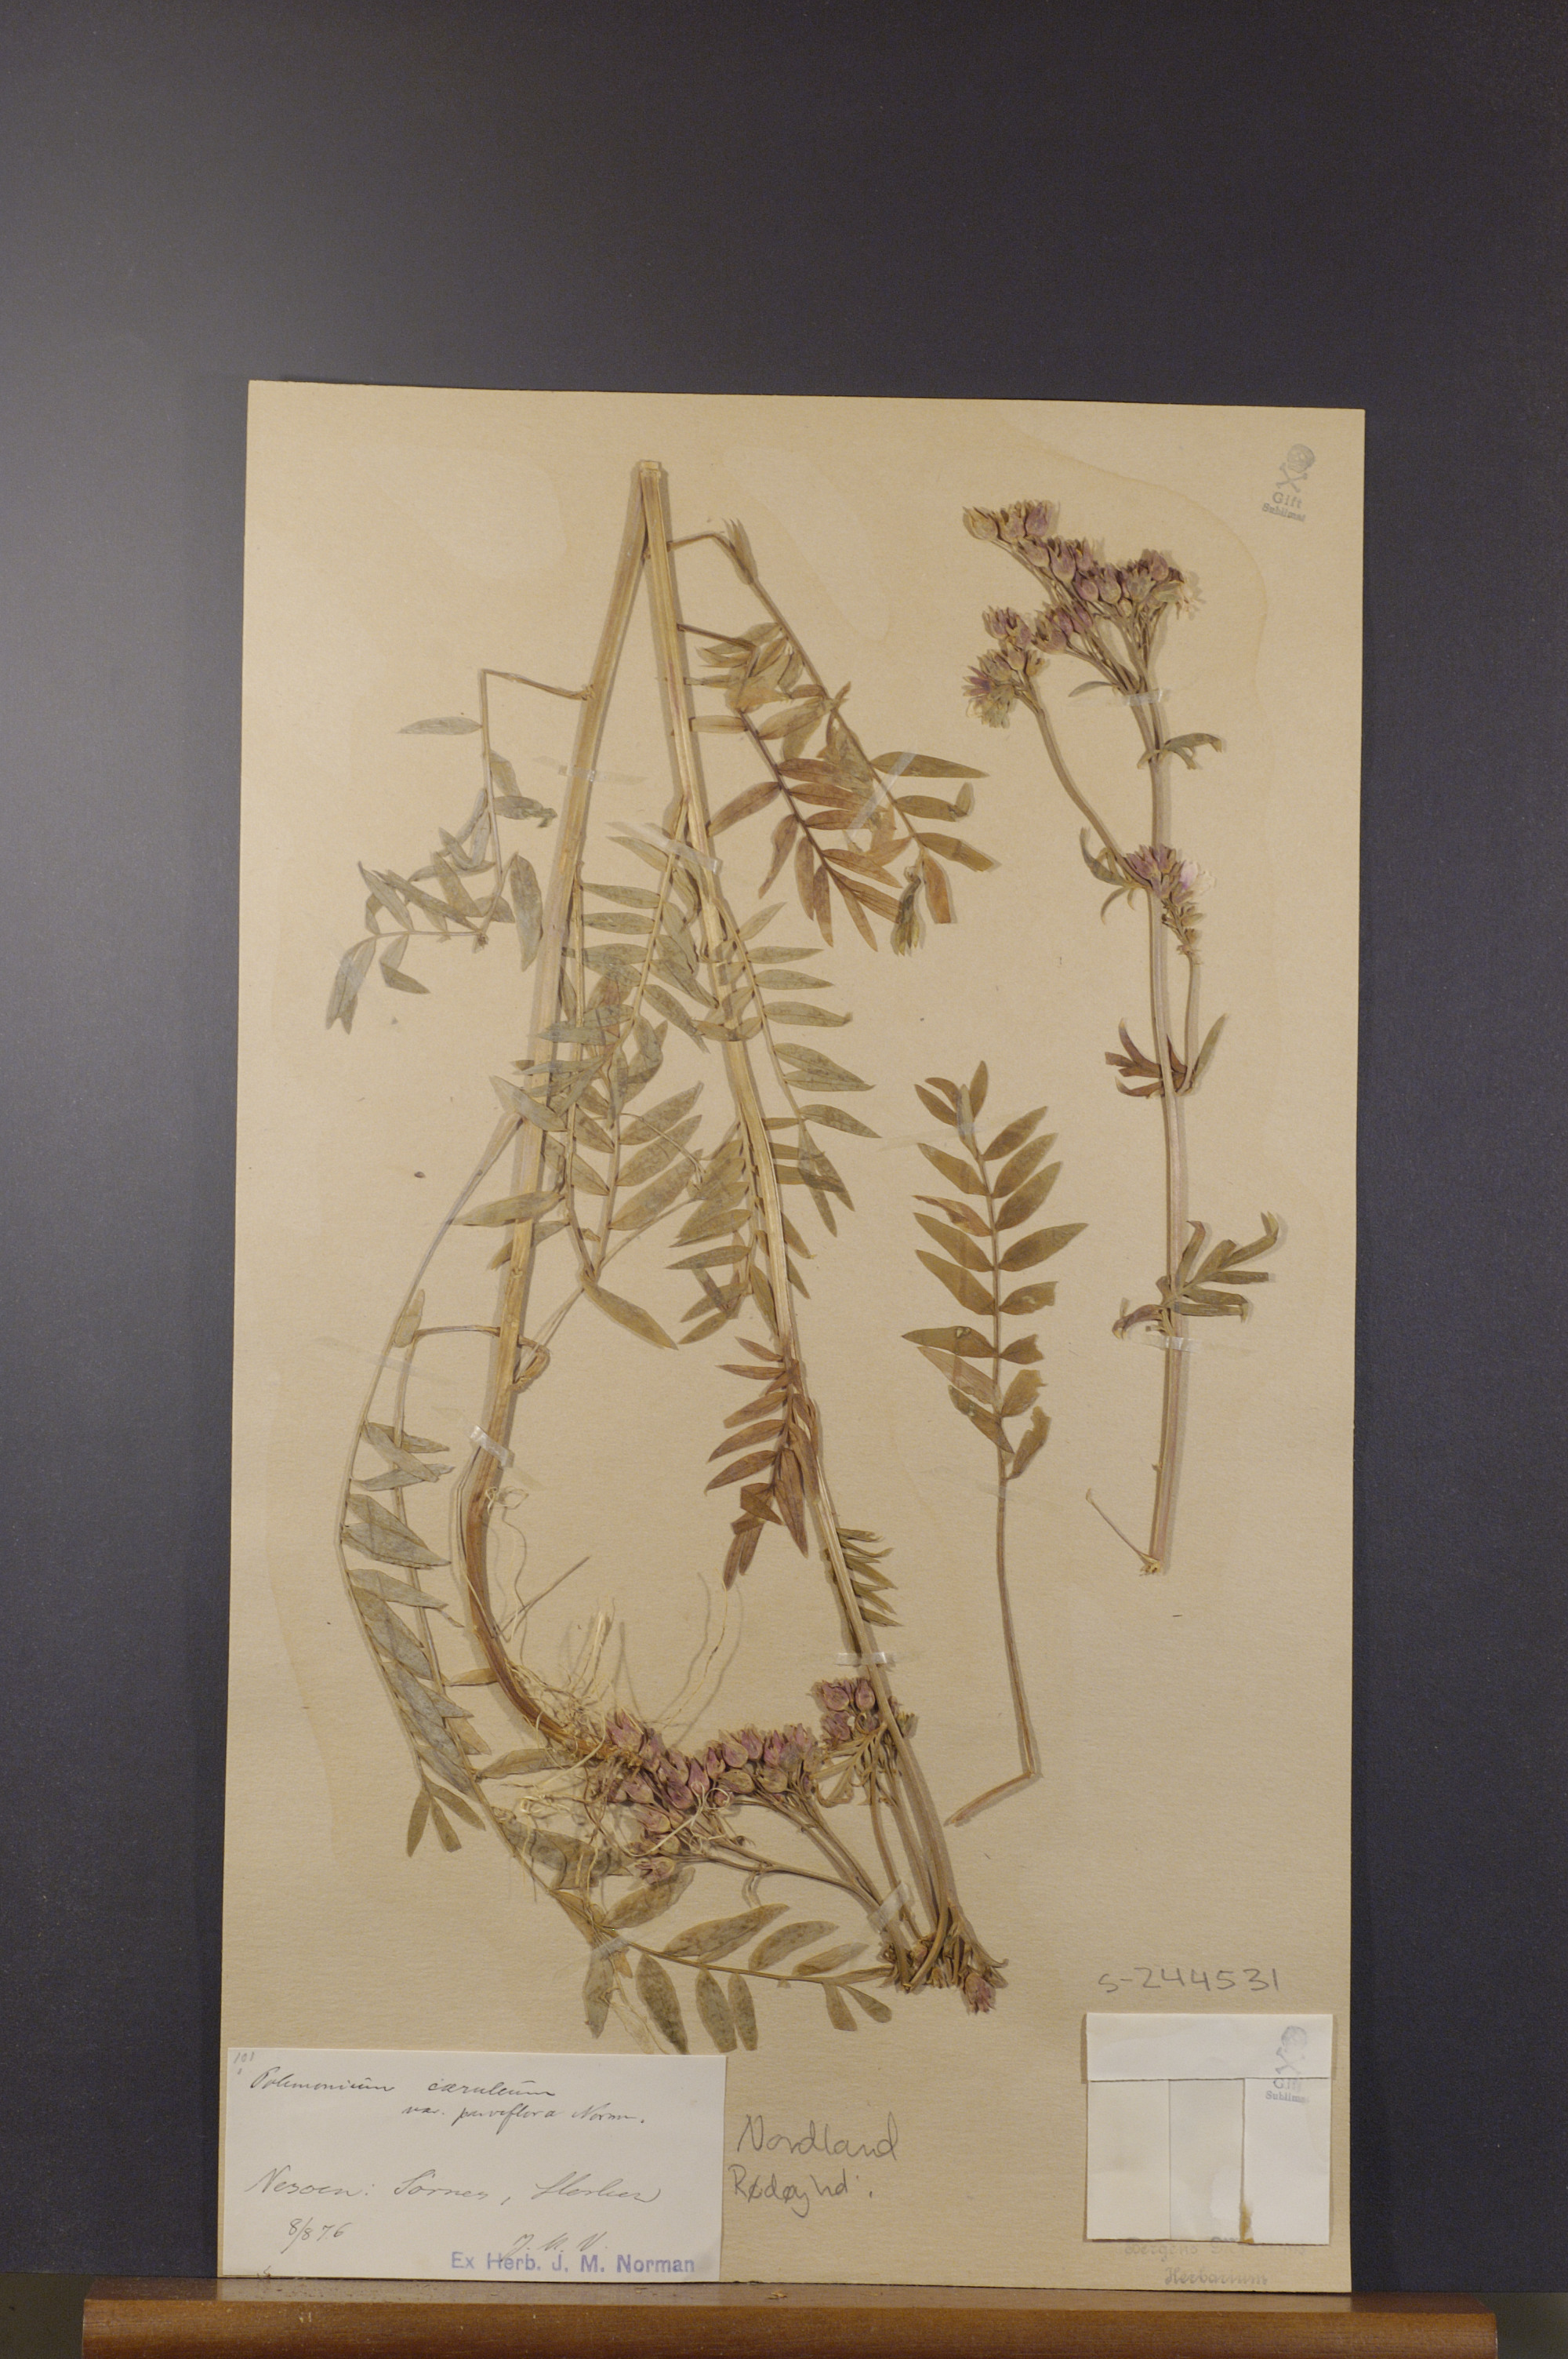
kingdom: Plantae
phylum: Tracheophyta
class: Magnoliopsida
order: Ericales
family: Polemoniaceae
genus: Polemonium
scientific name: Polemonium caeruleum
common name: Jacob's-ladder
